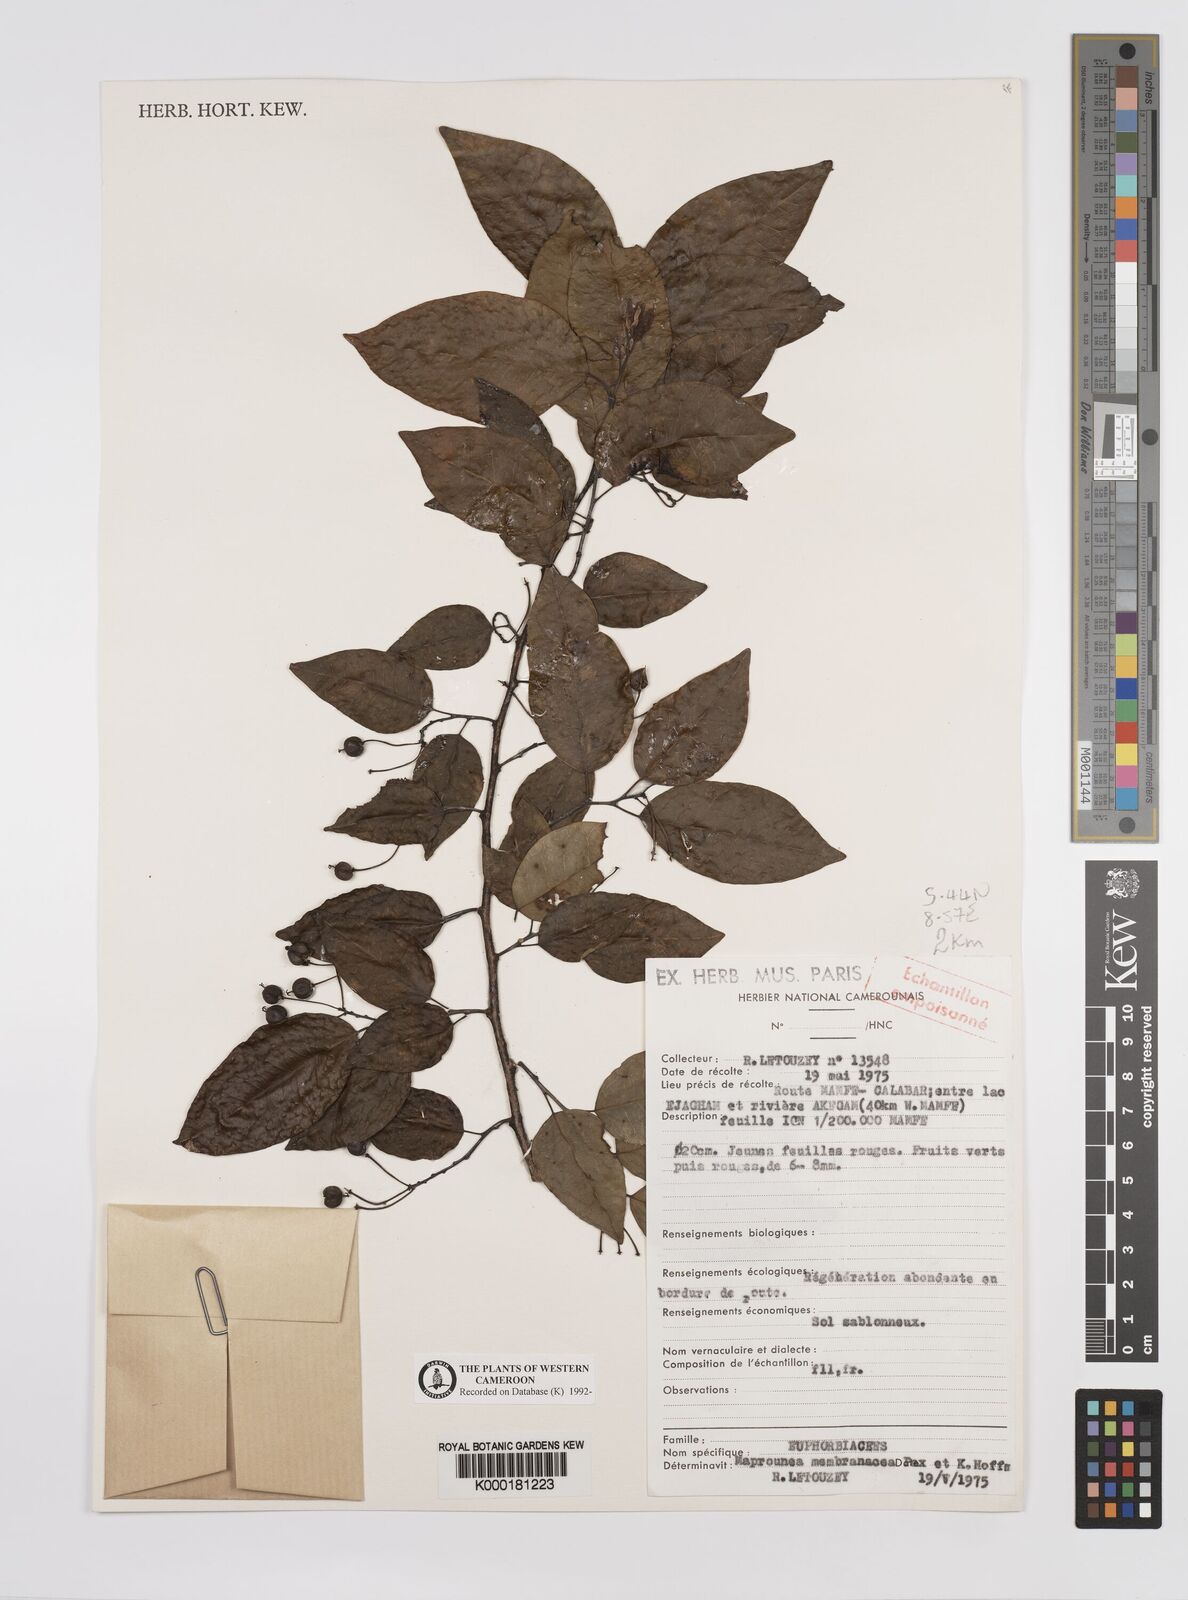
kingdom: Plantae
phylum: Tracheophyta
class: Magnoliopsida
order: Malpighiales
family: Euphorbiaceae
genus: Maprounea
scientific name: Maprounea membranacea
